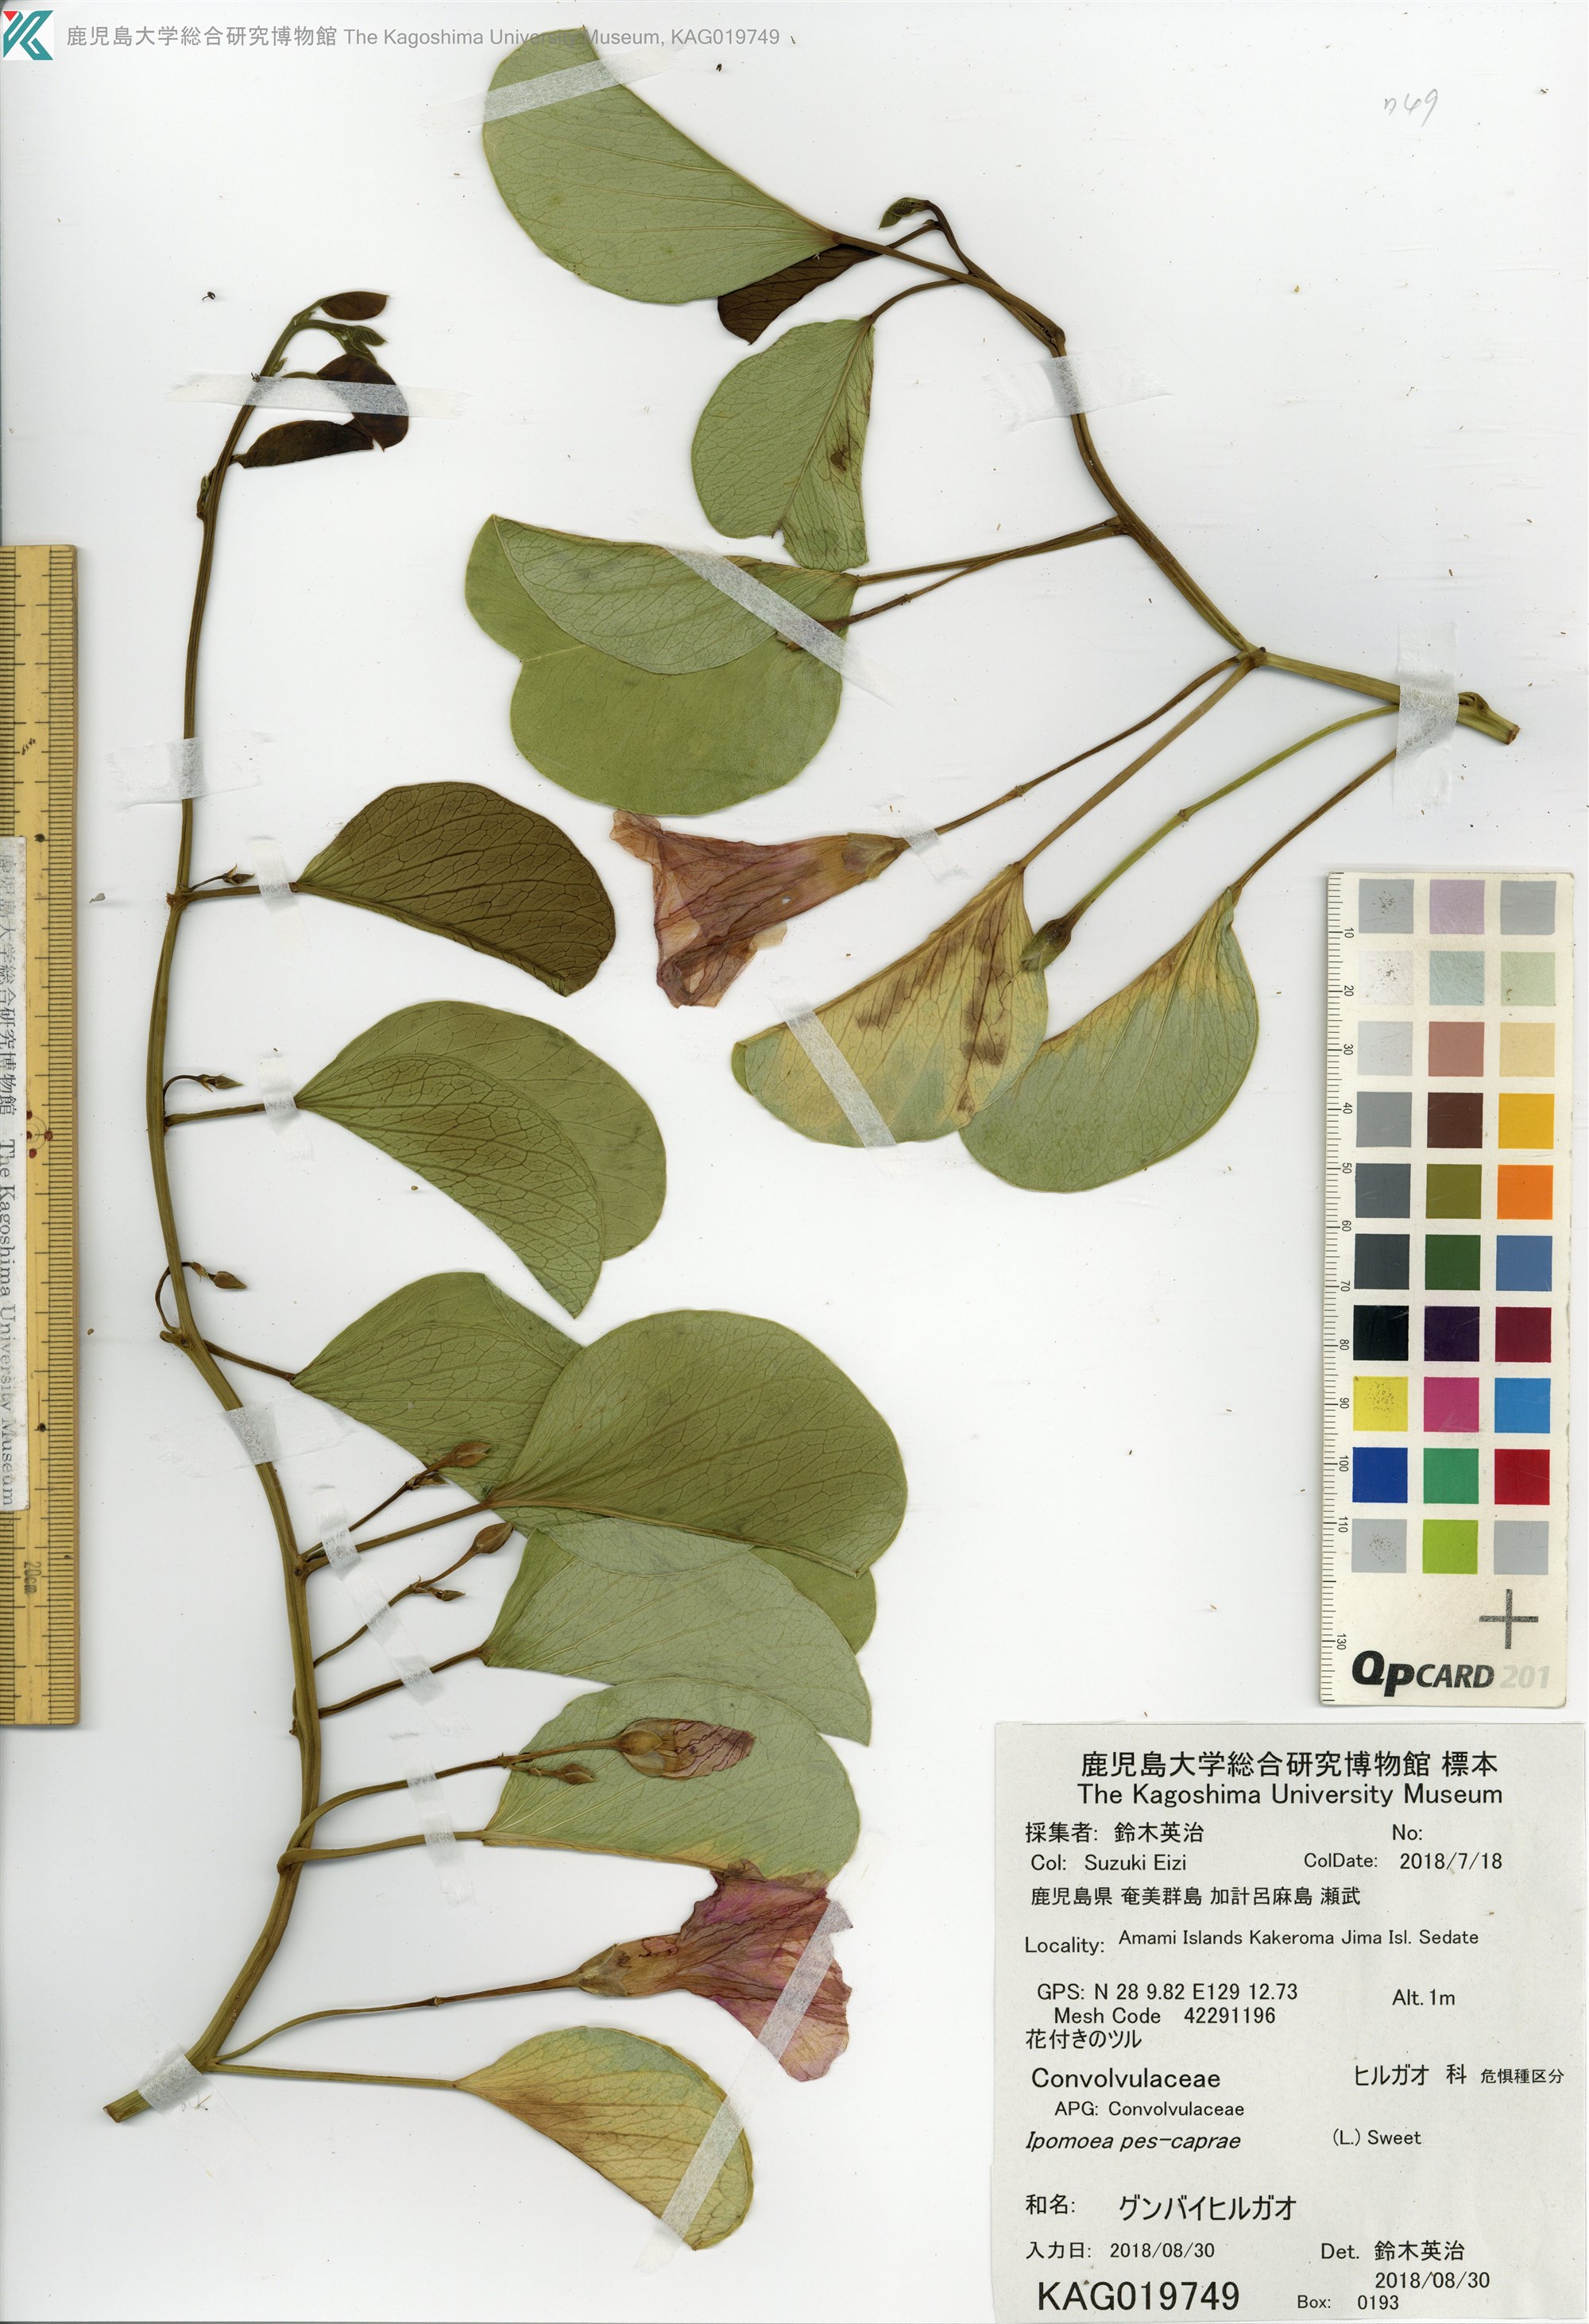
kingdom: Plantae
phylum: Tracheophyta
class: Magnoliopsida
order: Solanales
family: Convolvulaceae
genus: Ipomoea
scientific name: Ipomoea pes-caprae
